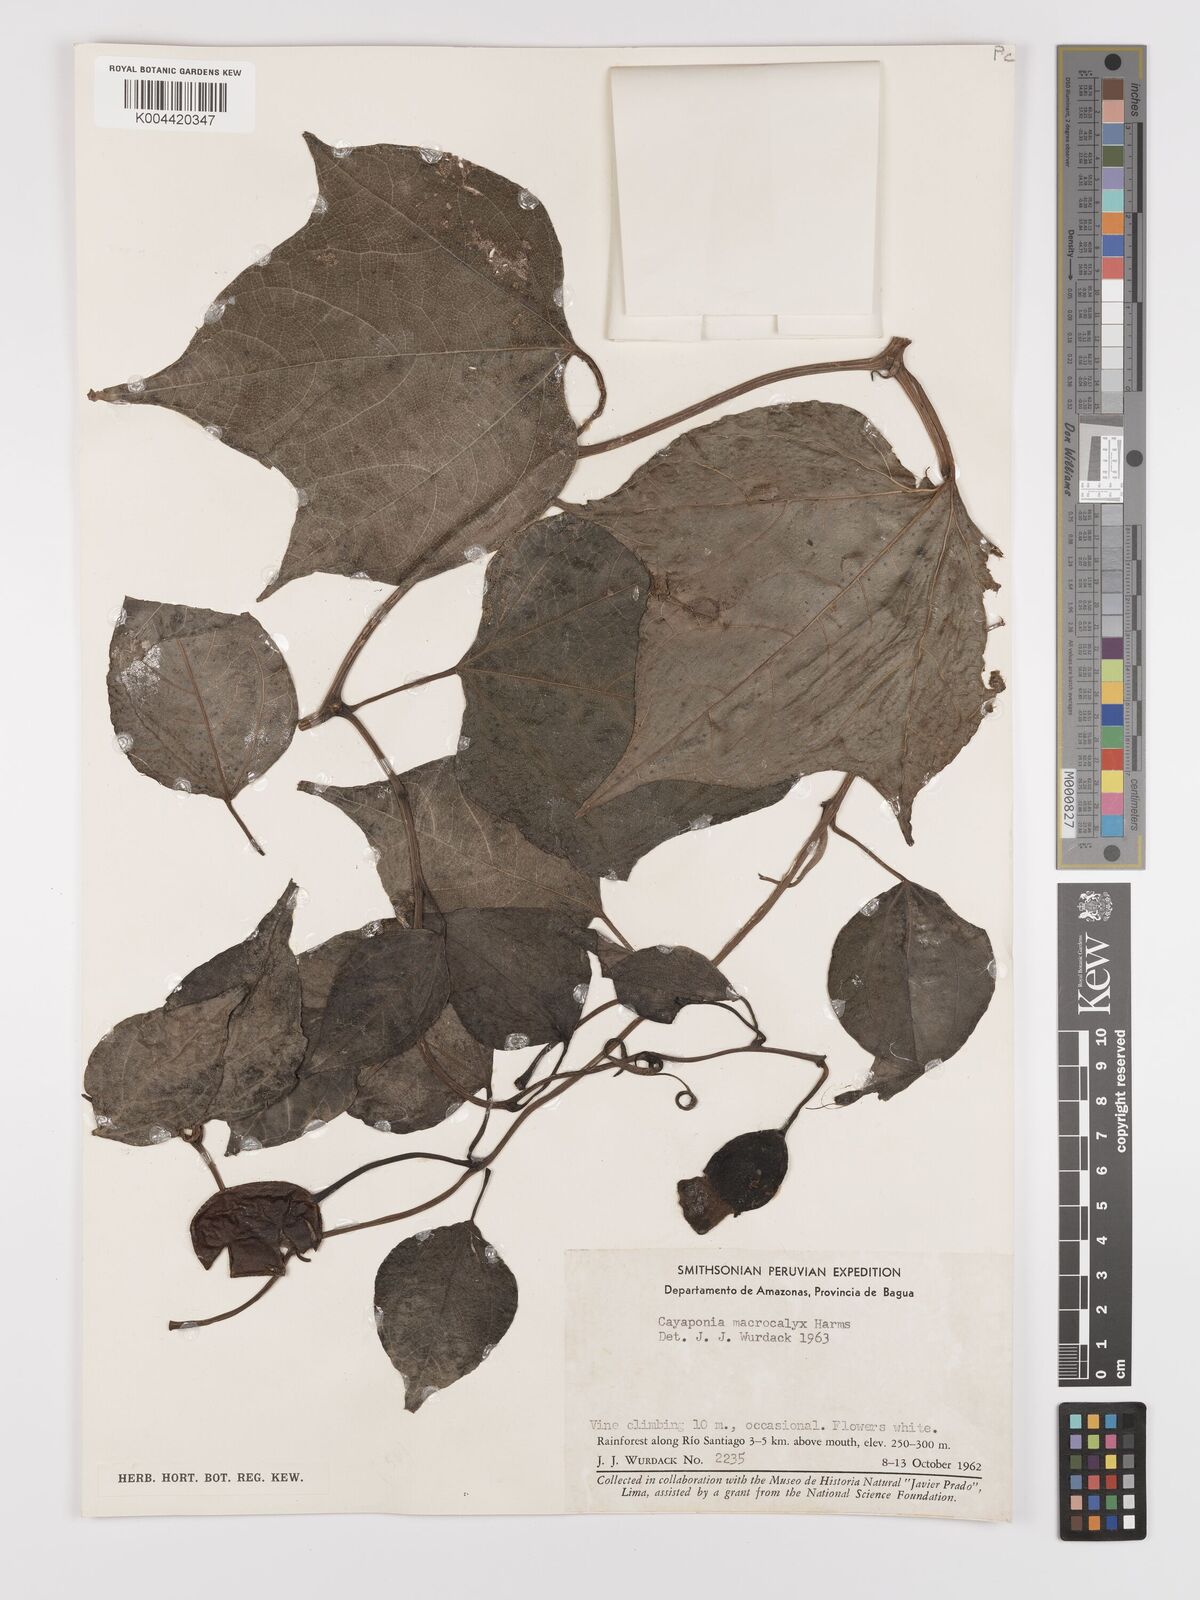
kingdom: Plantae
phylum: Tracheophyta
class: Magnoliopsida
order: Cucurbitales
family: Cucurbitaceae
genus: Cayaponia
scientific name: Cayaponia macrocalyx
